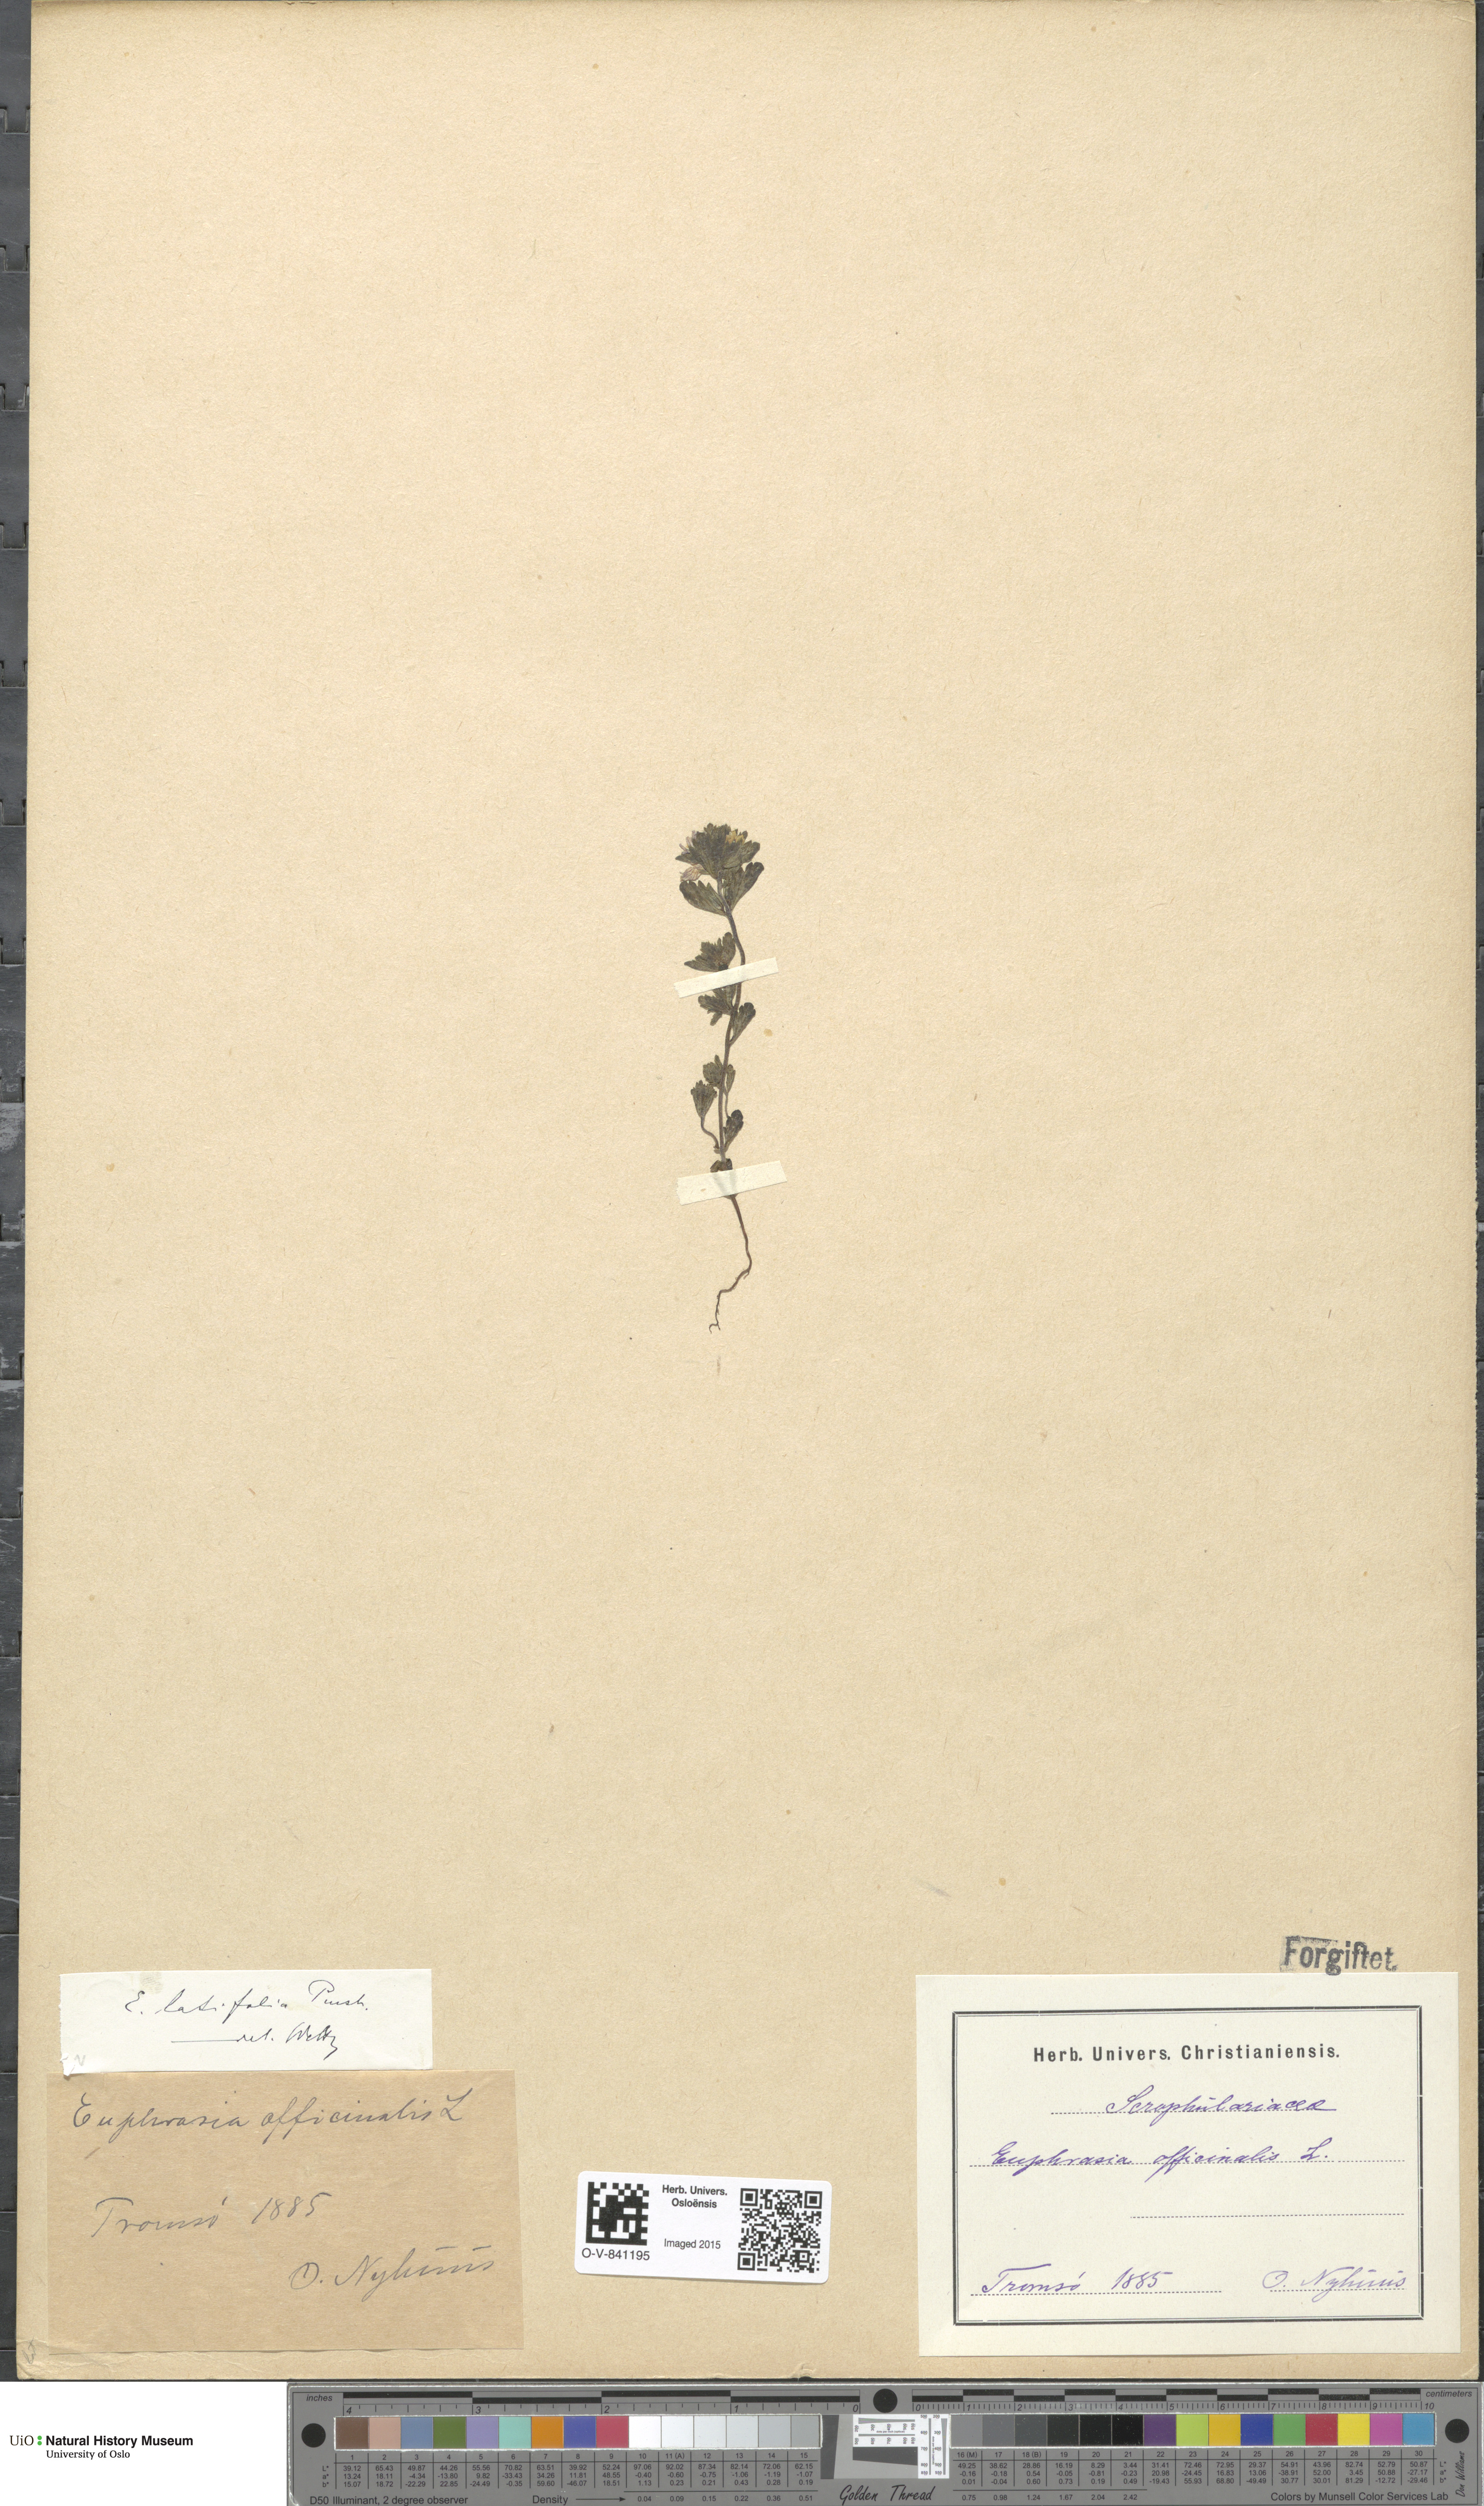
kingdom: Plantae
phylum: Tracheophyta
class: Magnoliopsida
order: Lamiales
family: Orobanchaceae
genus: Euphrasia
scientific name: Euphrasia wettsteinii
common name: Wettstein's eyebright
